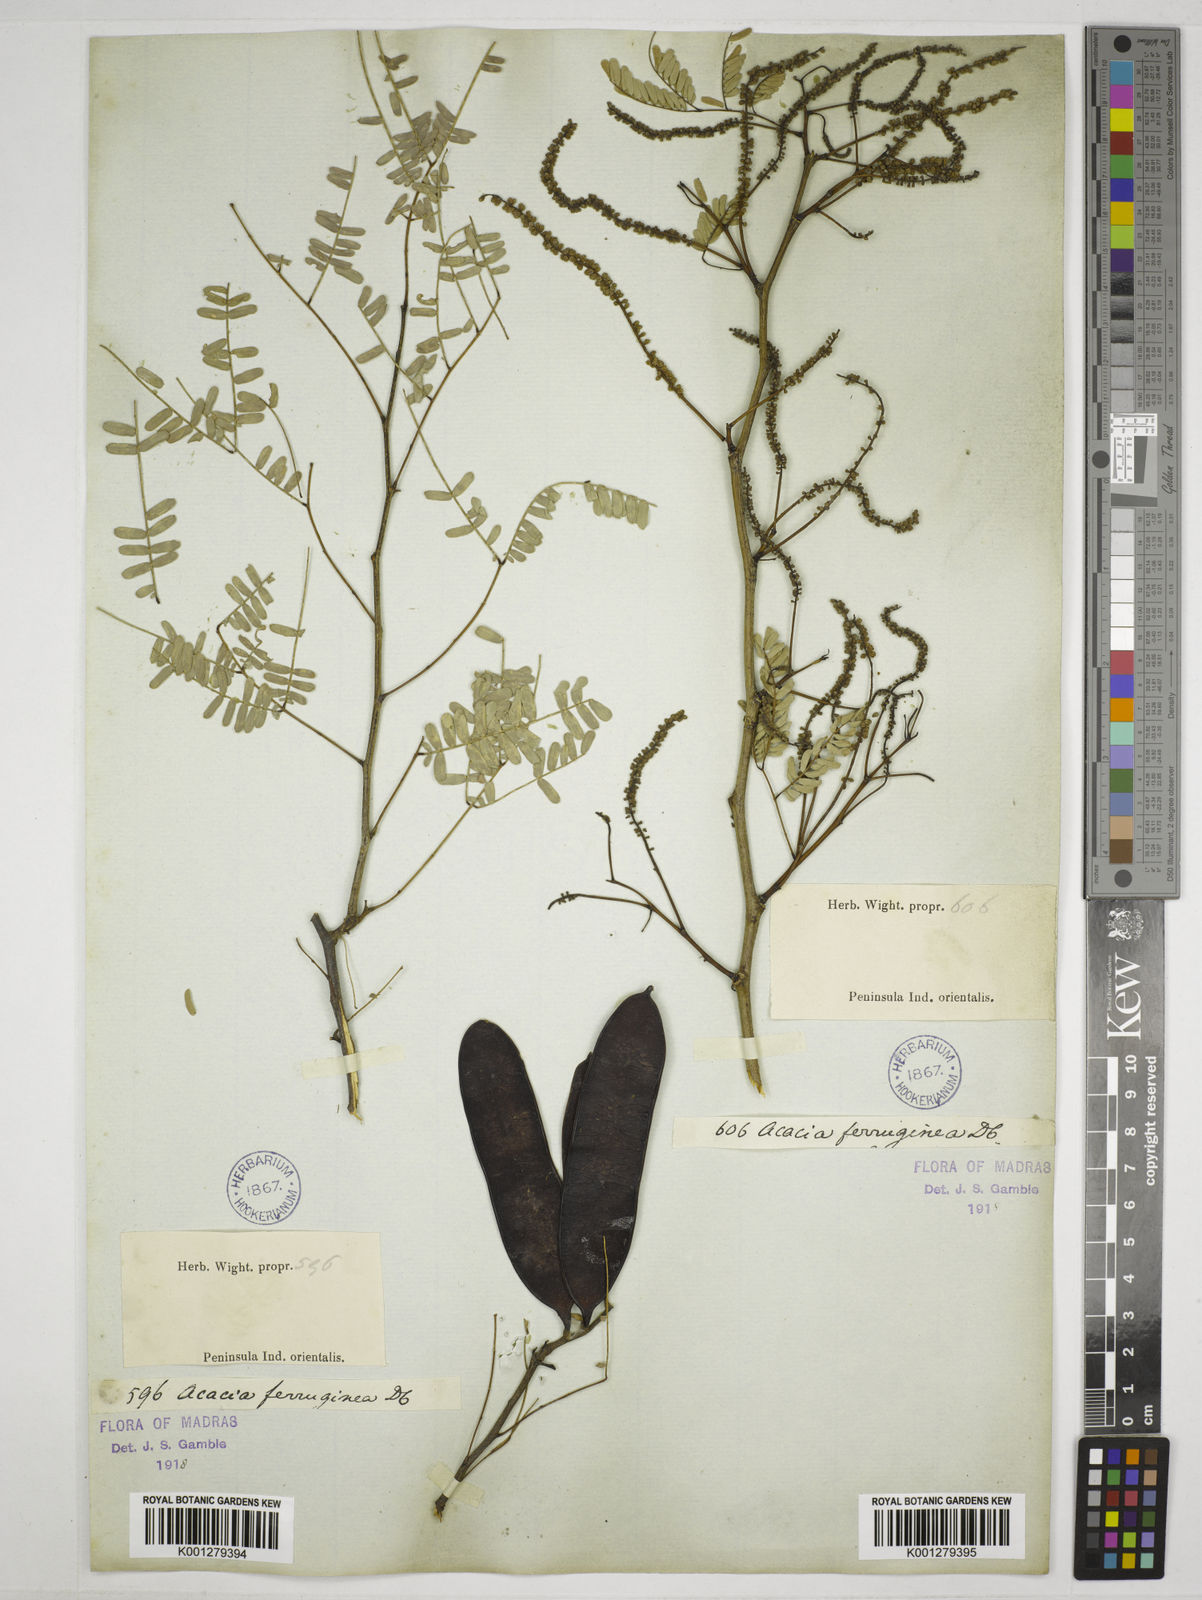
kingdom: Plantae
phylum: Tracheophyta
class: Magnoliopsida
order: Fabales
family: Fabaceae
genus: Senegalia
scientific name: Senegalia ferruginea
